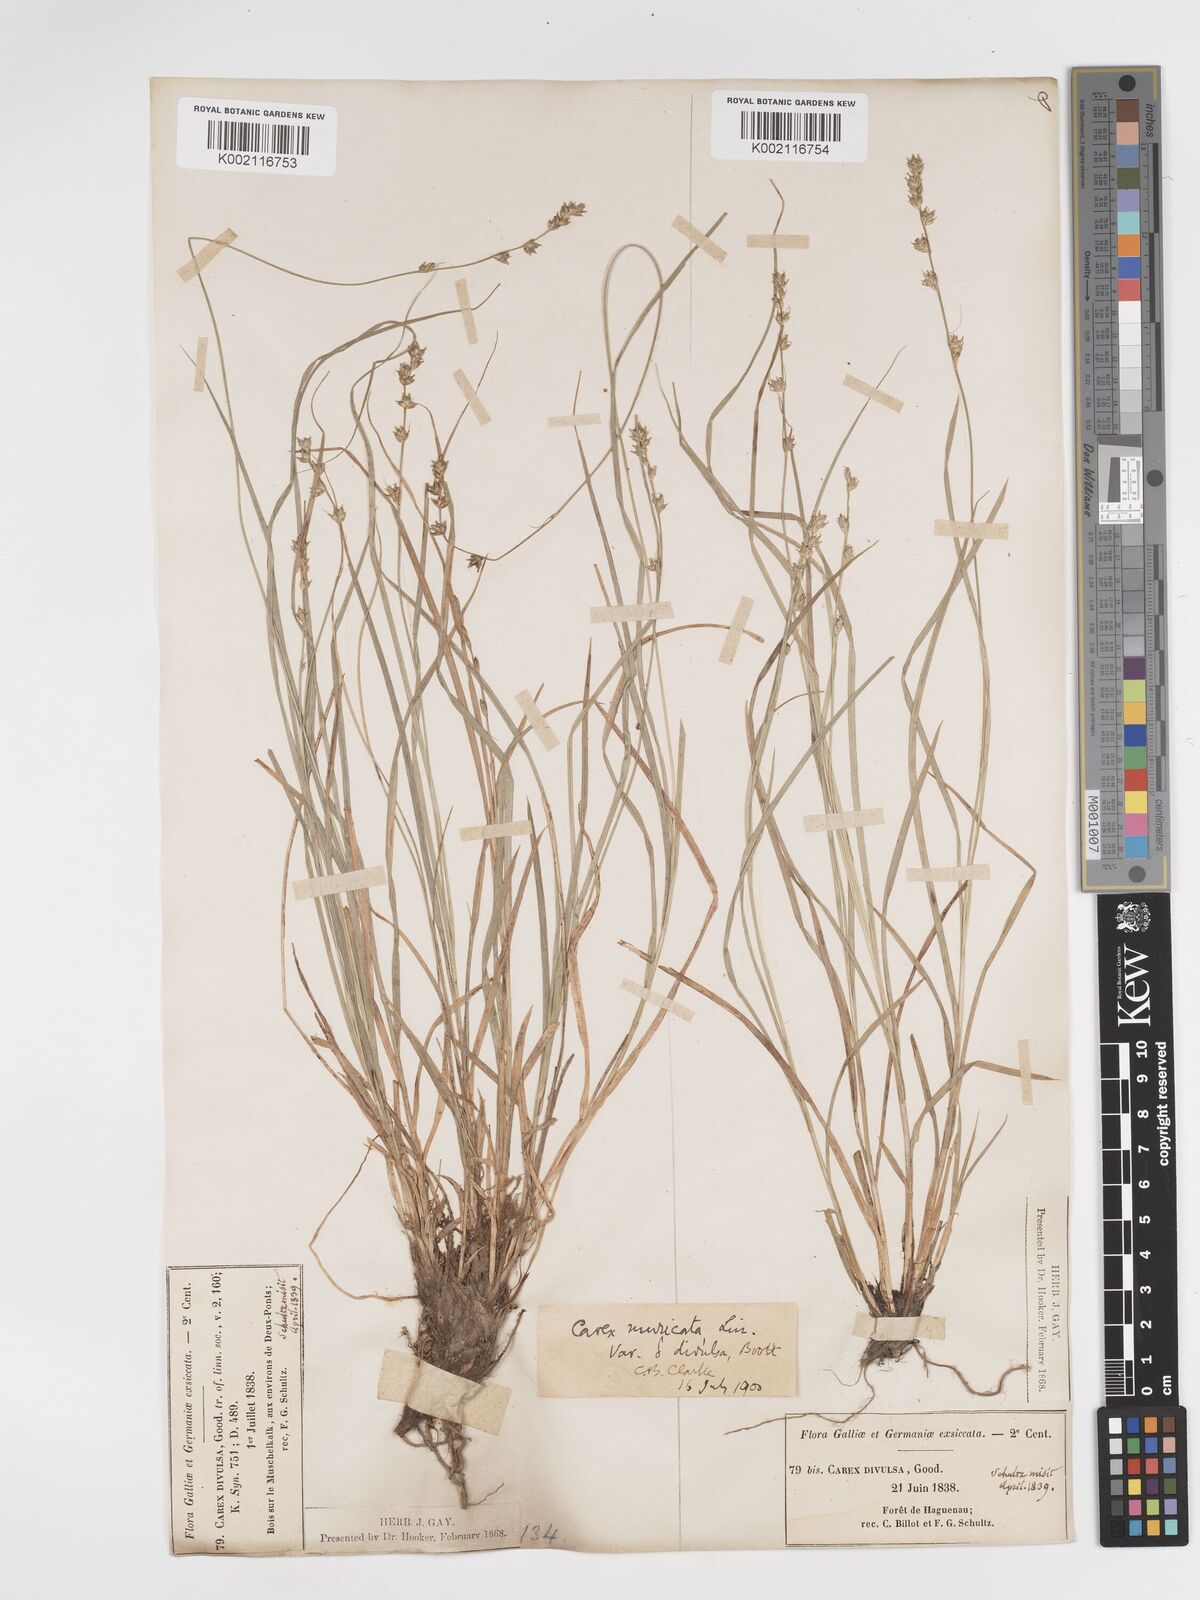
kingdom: Plantae
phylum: Tracheophyta
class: Liliopsida
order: Poales
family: Cyperaceae
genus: Carex
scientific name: Carex divulsa
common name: Grassland sedge
